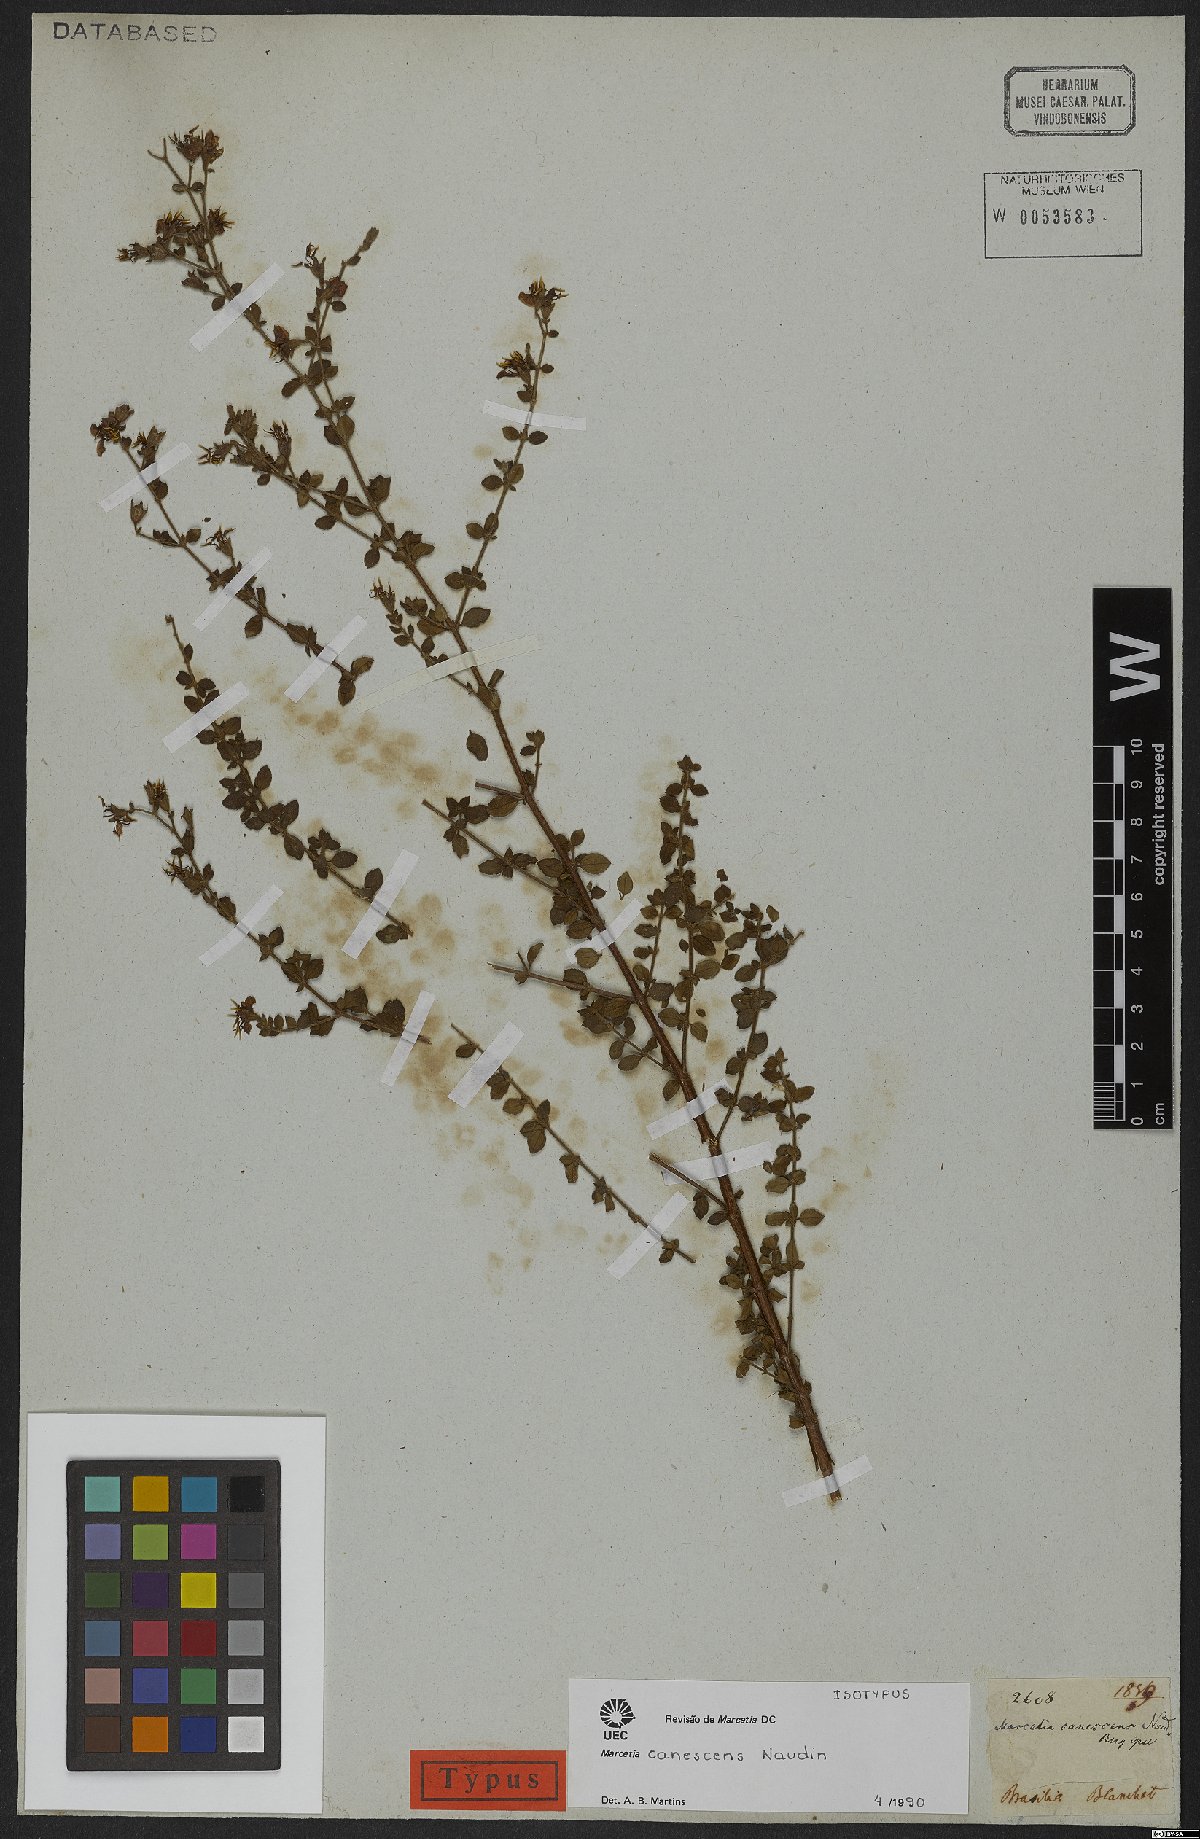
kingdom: Plantae
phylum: Tracheophyta
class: Magnoliopsida
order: Myrtales
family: Melastomataceae
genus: Marcetia
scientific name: Marcetia canescens
